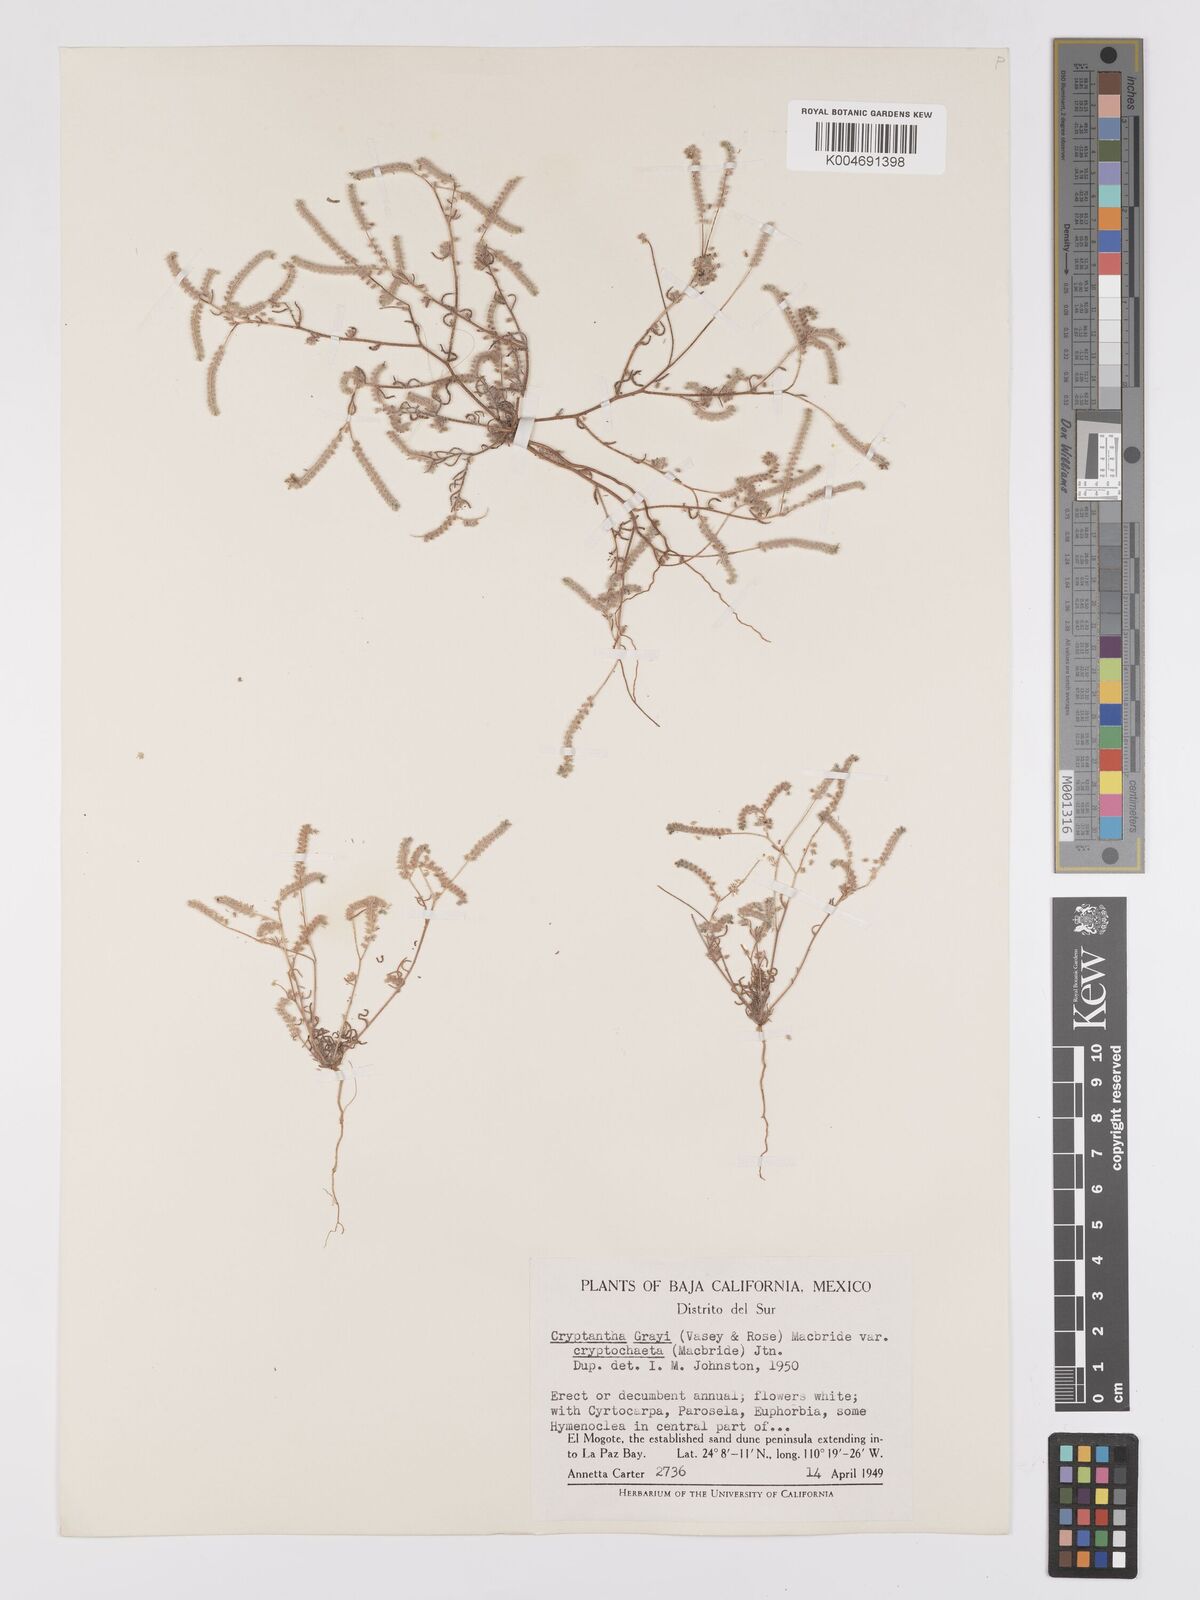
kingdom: Plantae
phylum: Tracheophyta
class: Magnoliopsida
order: Boraginales
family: Boraginaceae
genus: Johnstonella
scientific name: Johnstonella grayi
